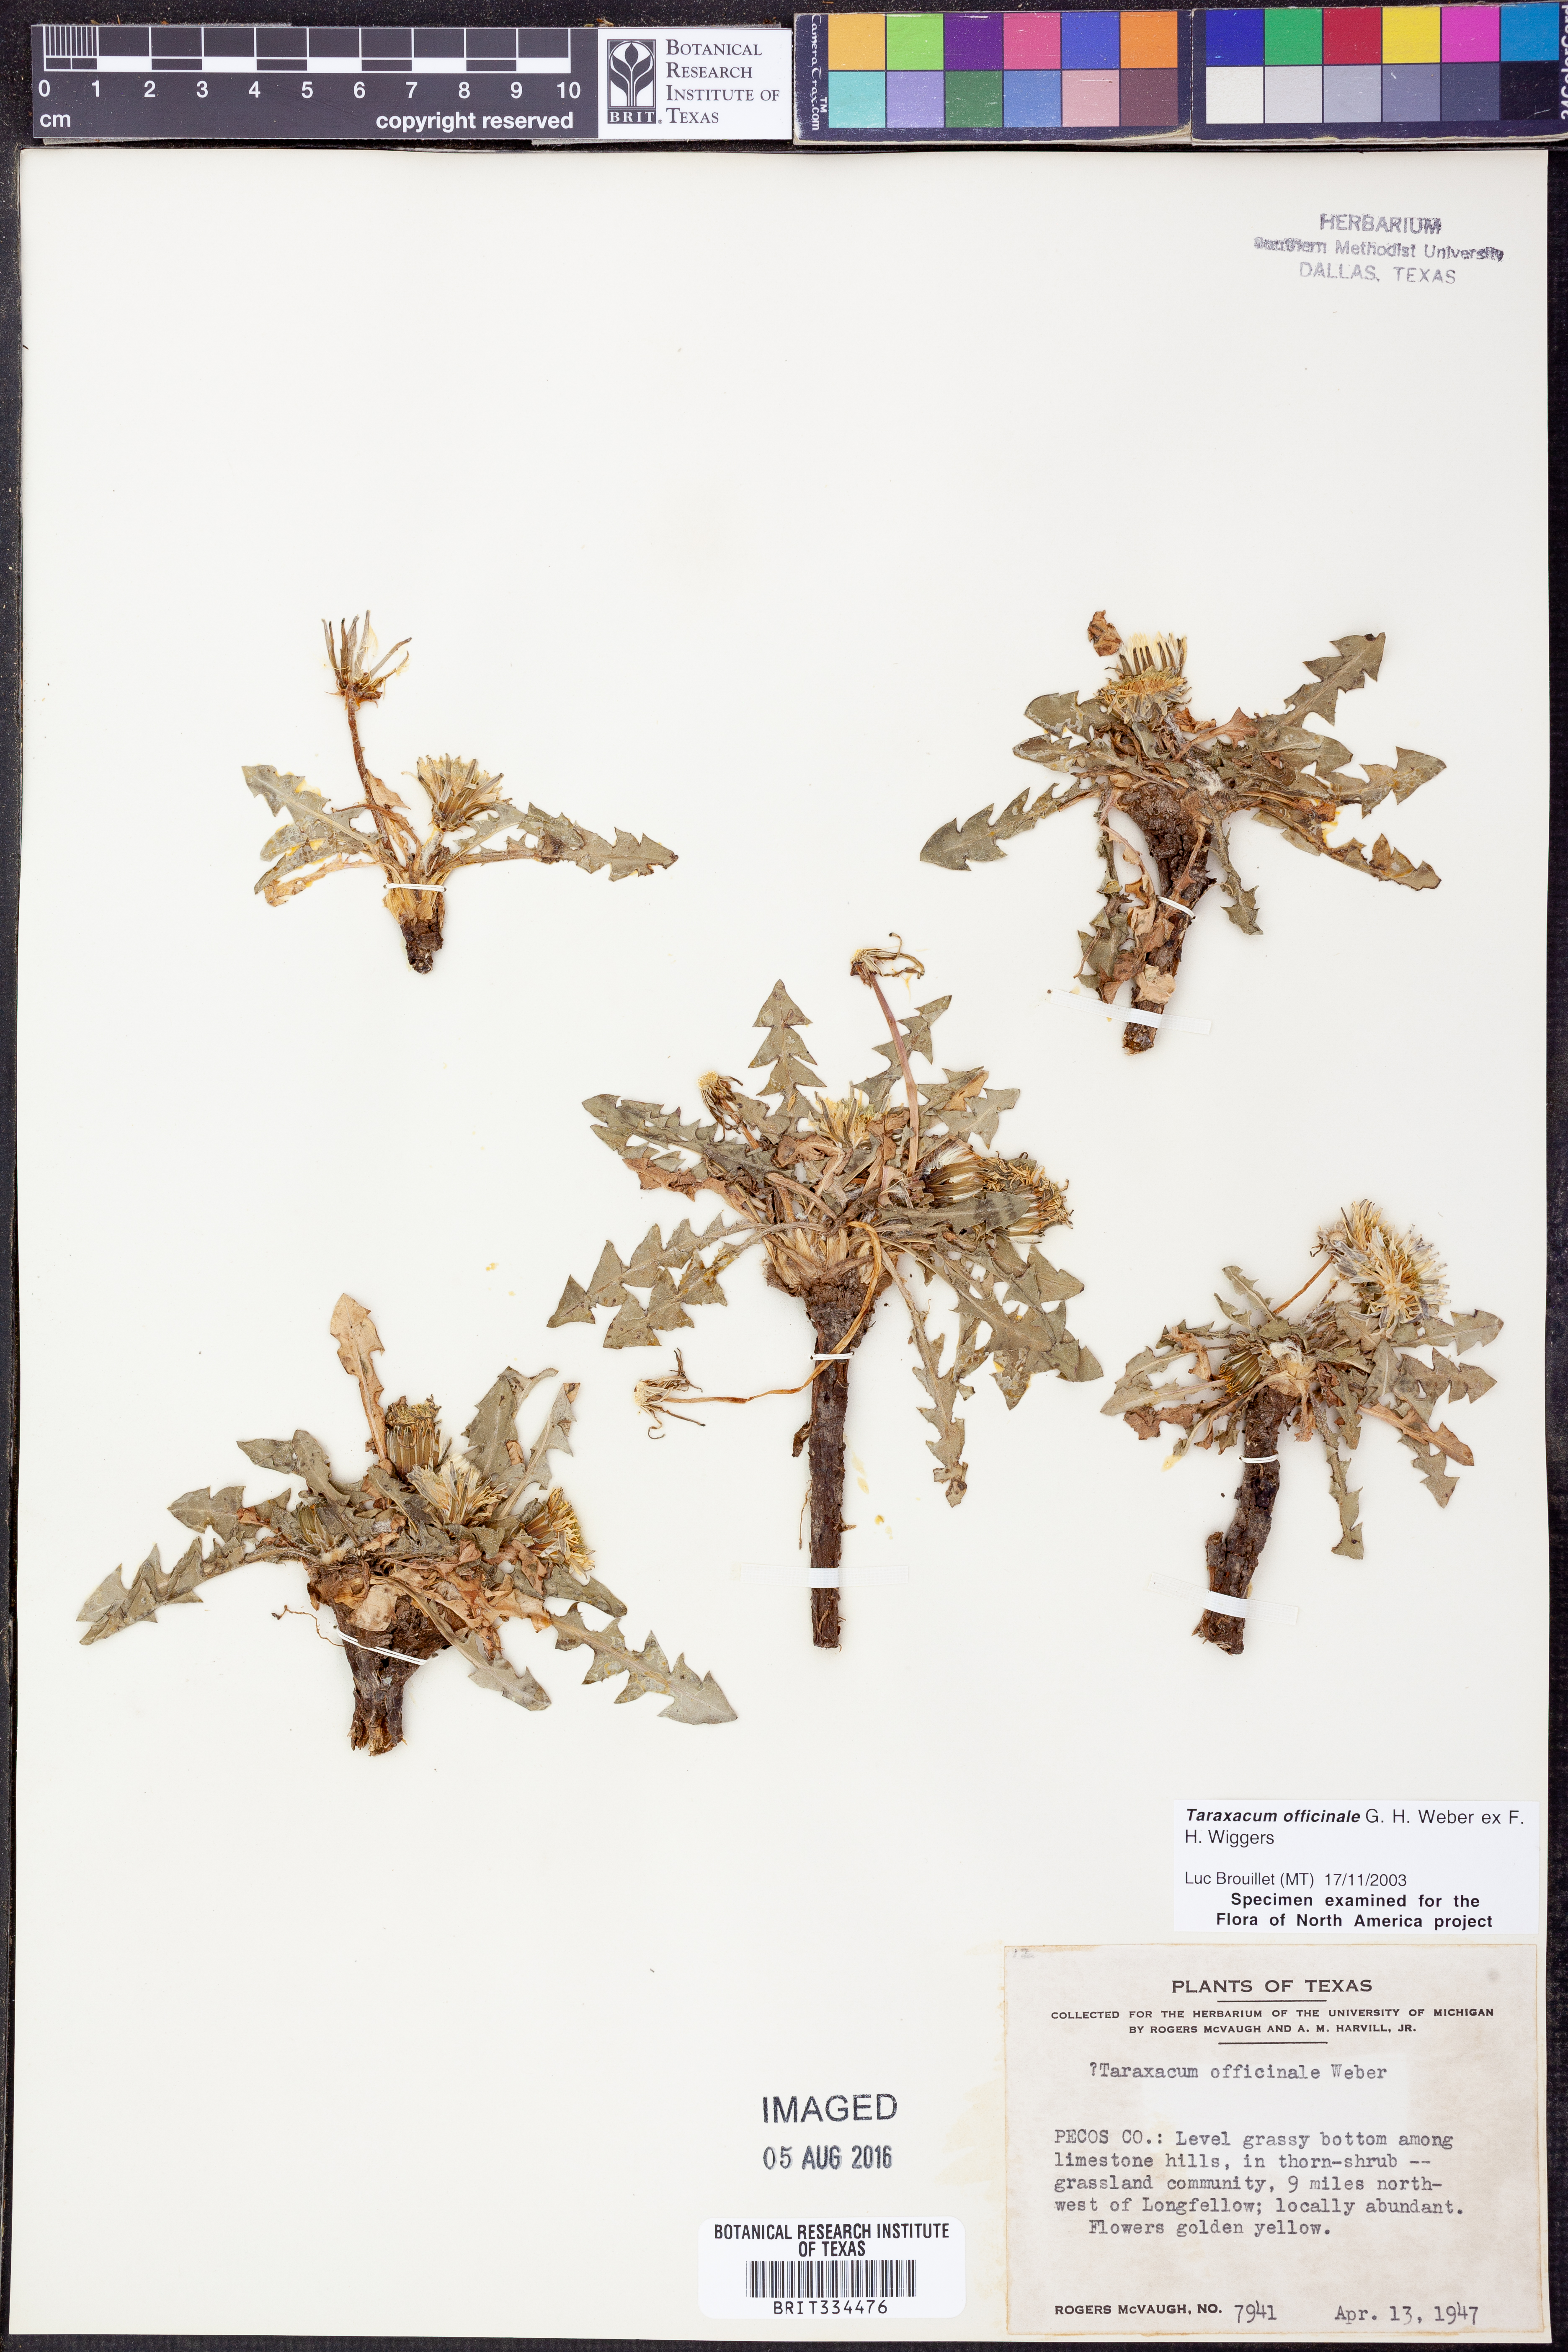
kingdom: Plantae
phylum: Tracheophyta
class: Magnoliopsida
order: Asterales
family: Asteraceae
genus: Taraxacum
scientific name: Taraxacum officinale
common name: Common dandelion
